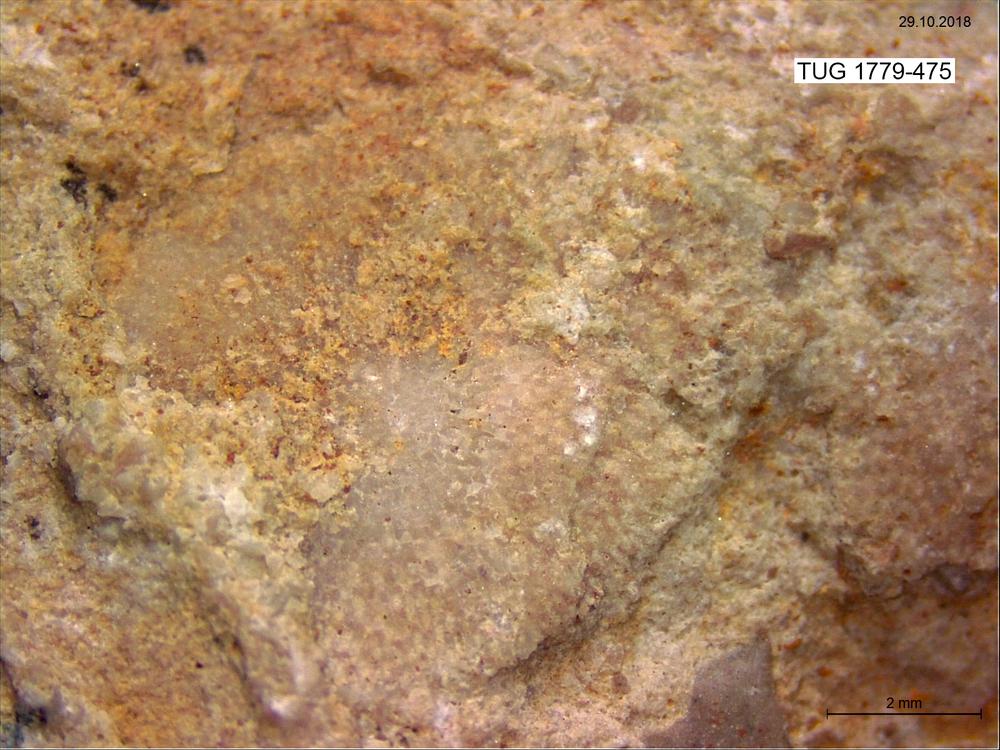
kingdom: Animalia
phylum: Bryozoa
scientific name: Bryozoa
